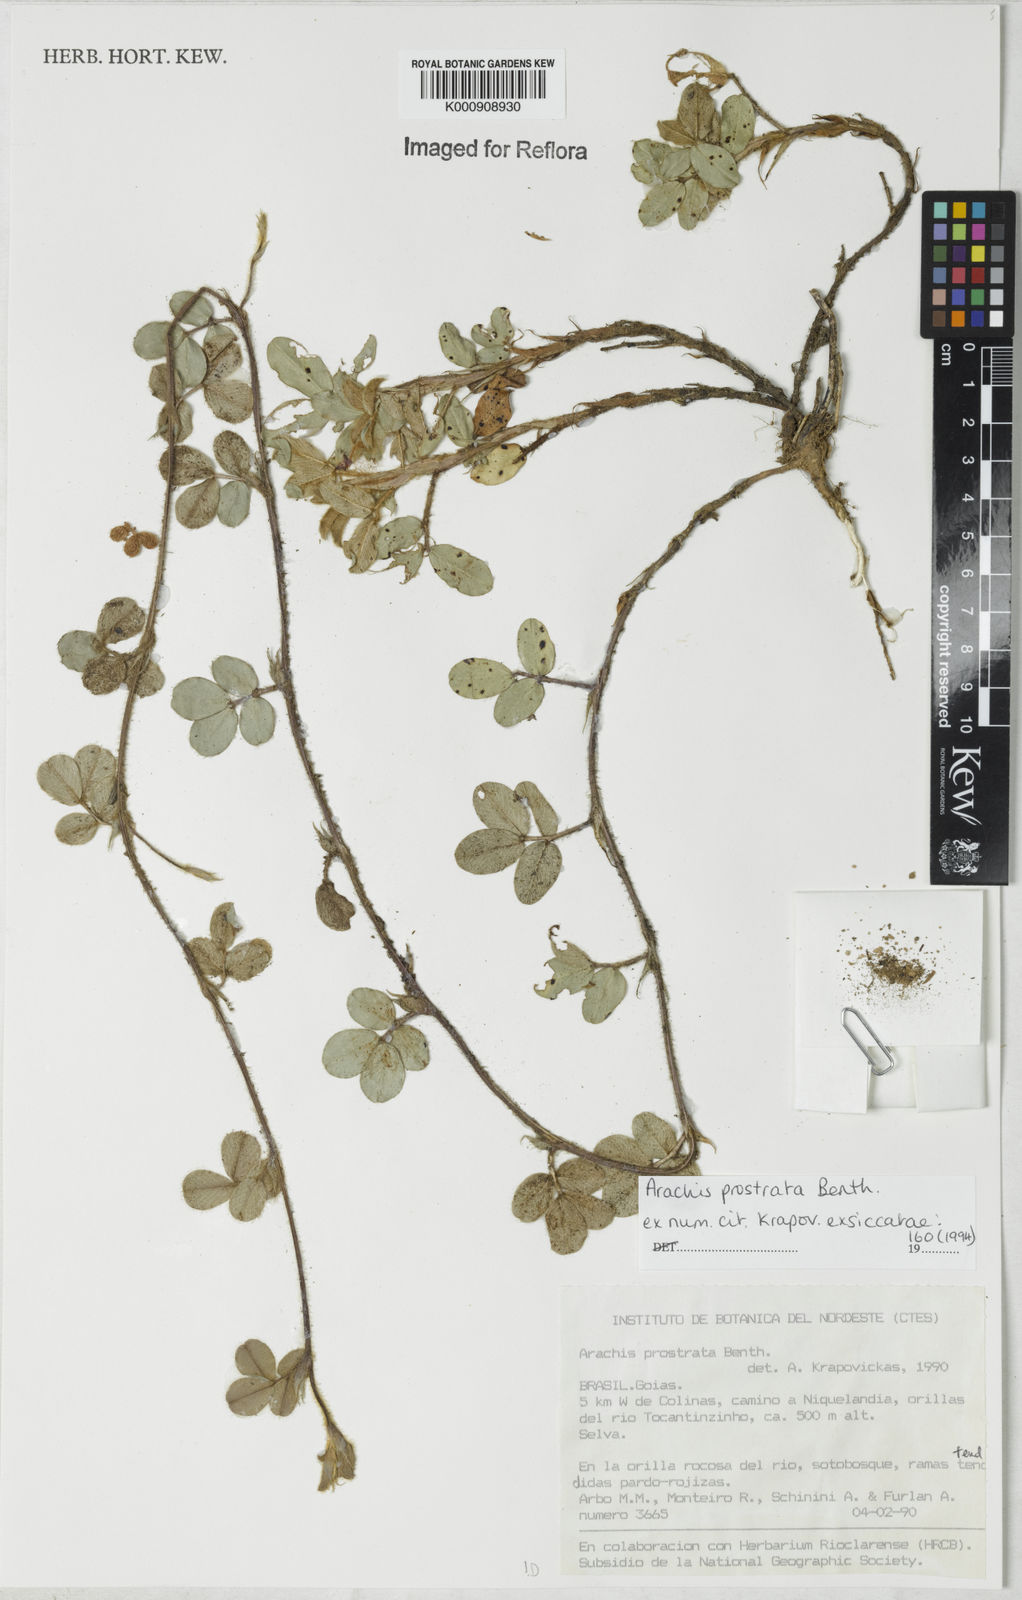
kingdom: Plantae
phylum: Tracheophyta
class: Magnoliopsida
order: Fabales
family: Fabaceae
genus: Arachis
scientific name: Arachis prostrata
